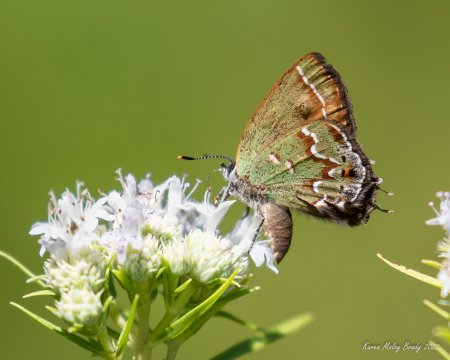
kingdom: Animalia
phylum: Arthropoda
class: Insecta
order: Lepidoptera
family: Lycaenidae
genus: Mitoura
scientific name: Mitoura gryneus
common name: Juniper Hairstreak
